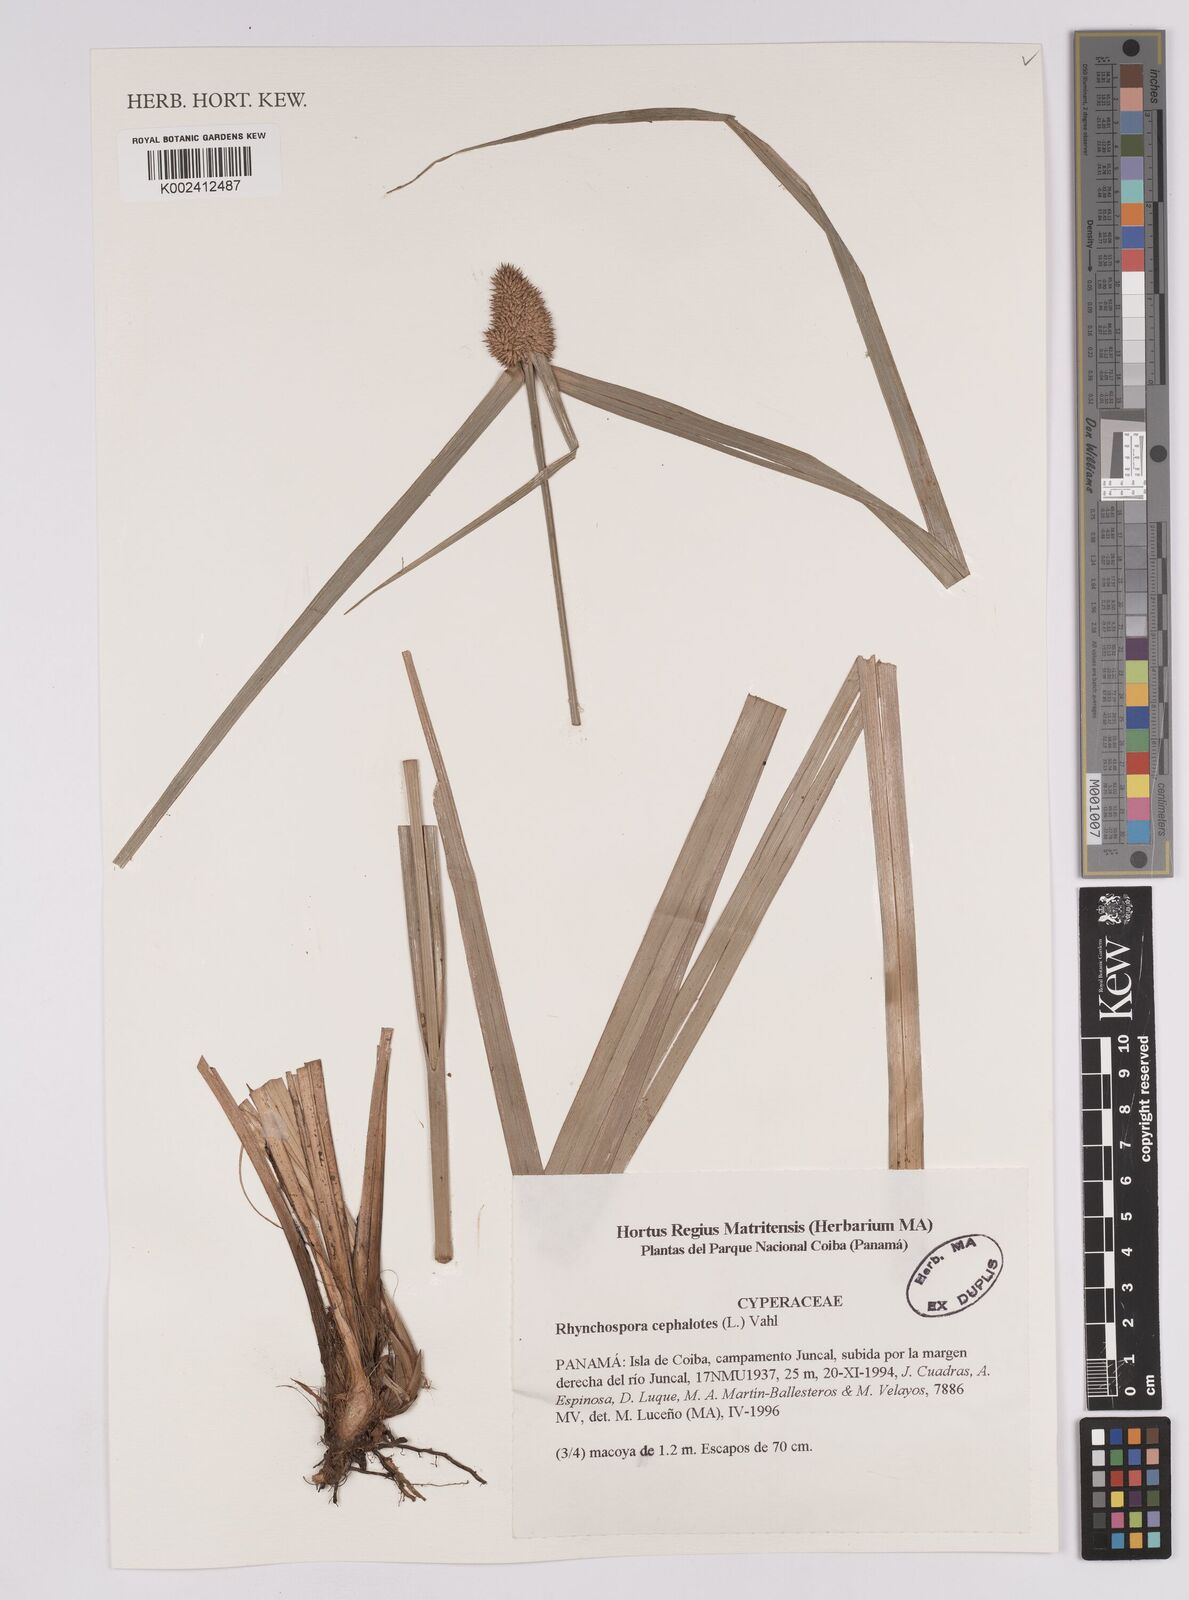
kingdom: Plantae
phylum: Tracheophyta
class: Liliopsida
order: Poales
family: Cyperaceae
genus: Rhynchospora
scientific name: Rhynchospora cephalotes
